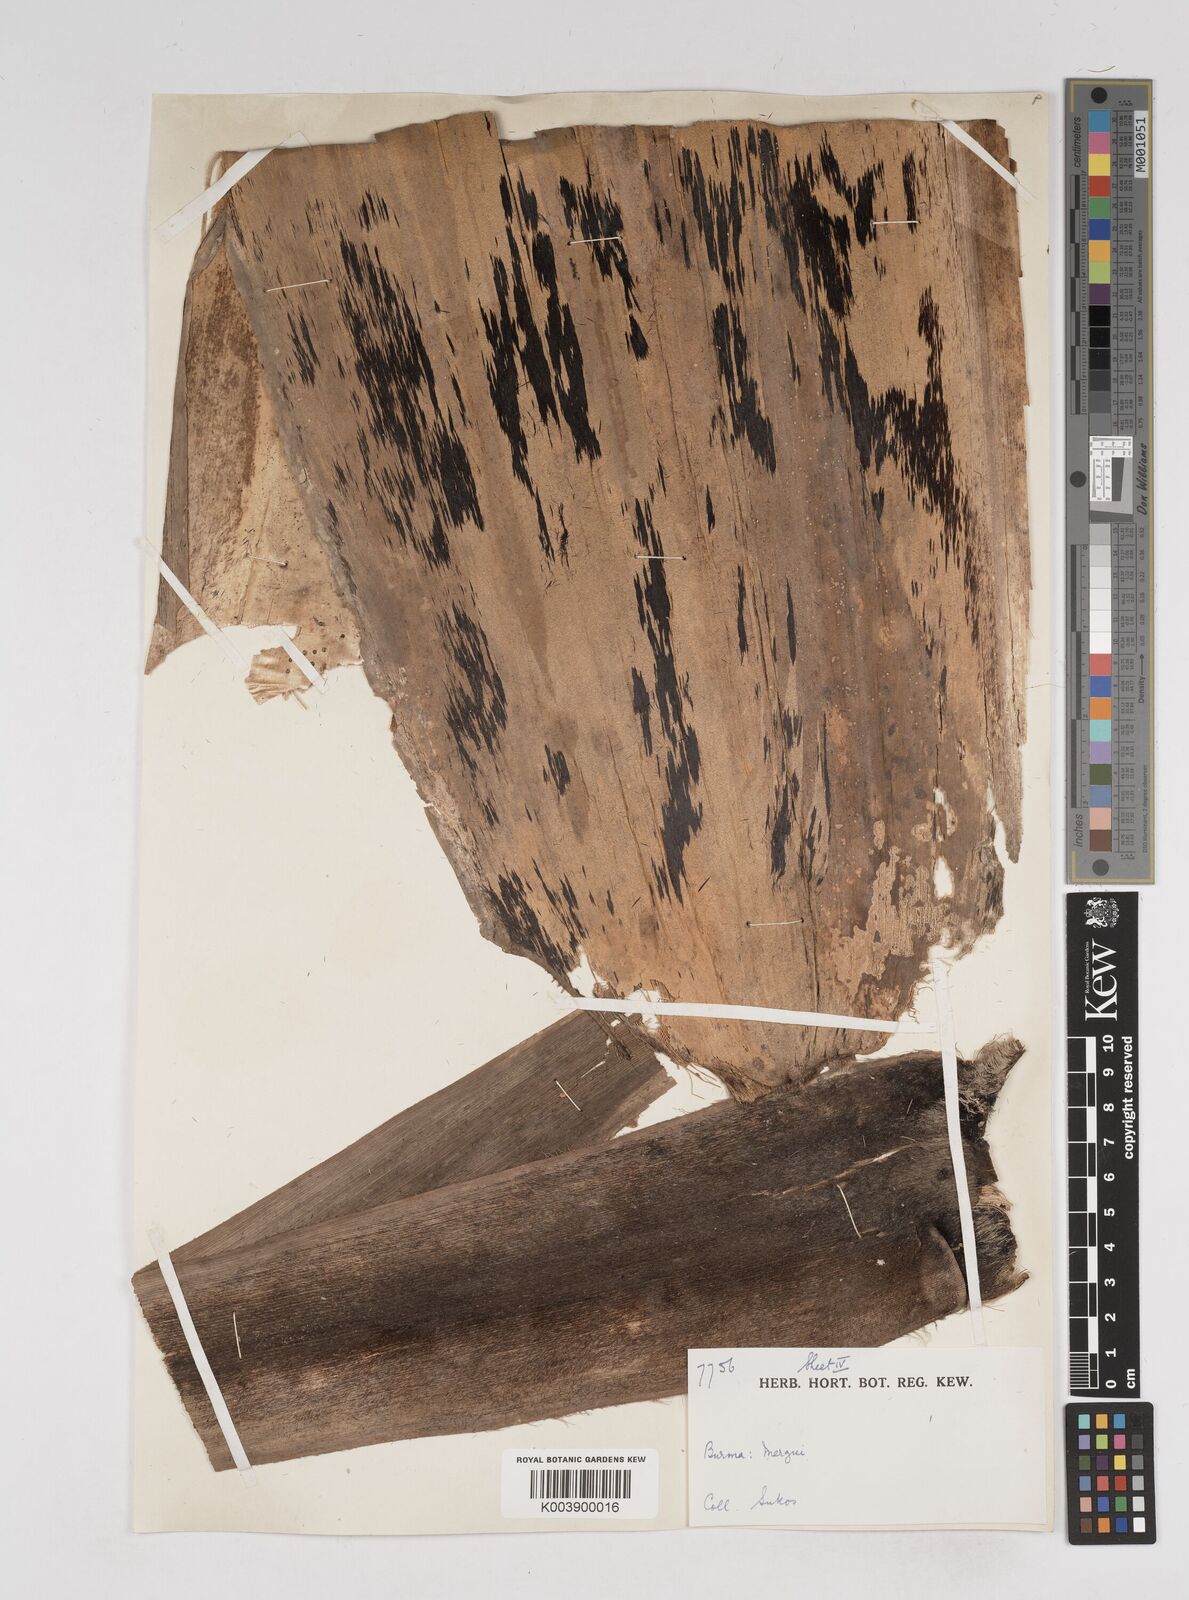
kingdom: Plantae
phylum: Tracheophyta
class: Liliopsida
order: Poales
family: Poaceae
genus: Gigantochloa
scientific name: Gigantochloa
